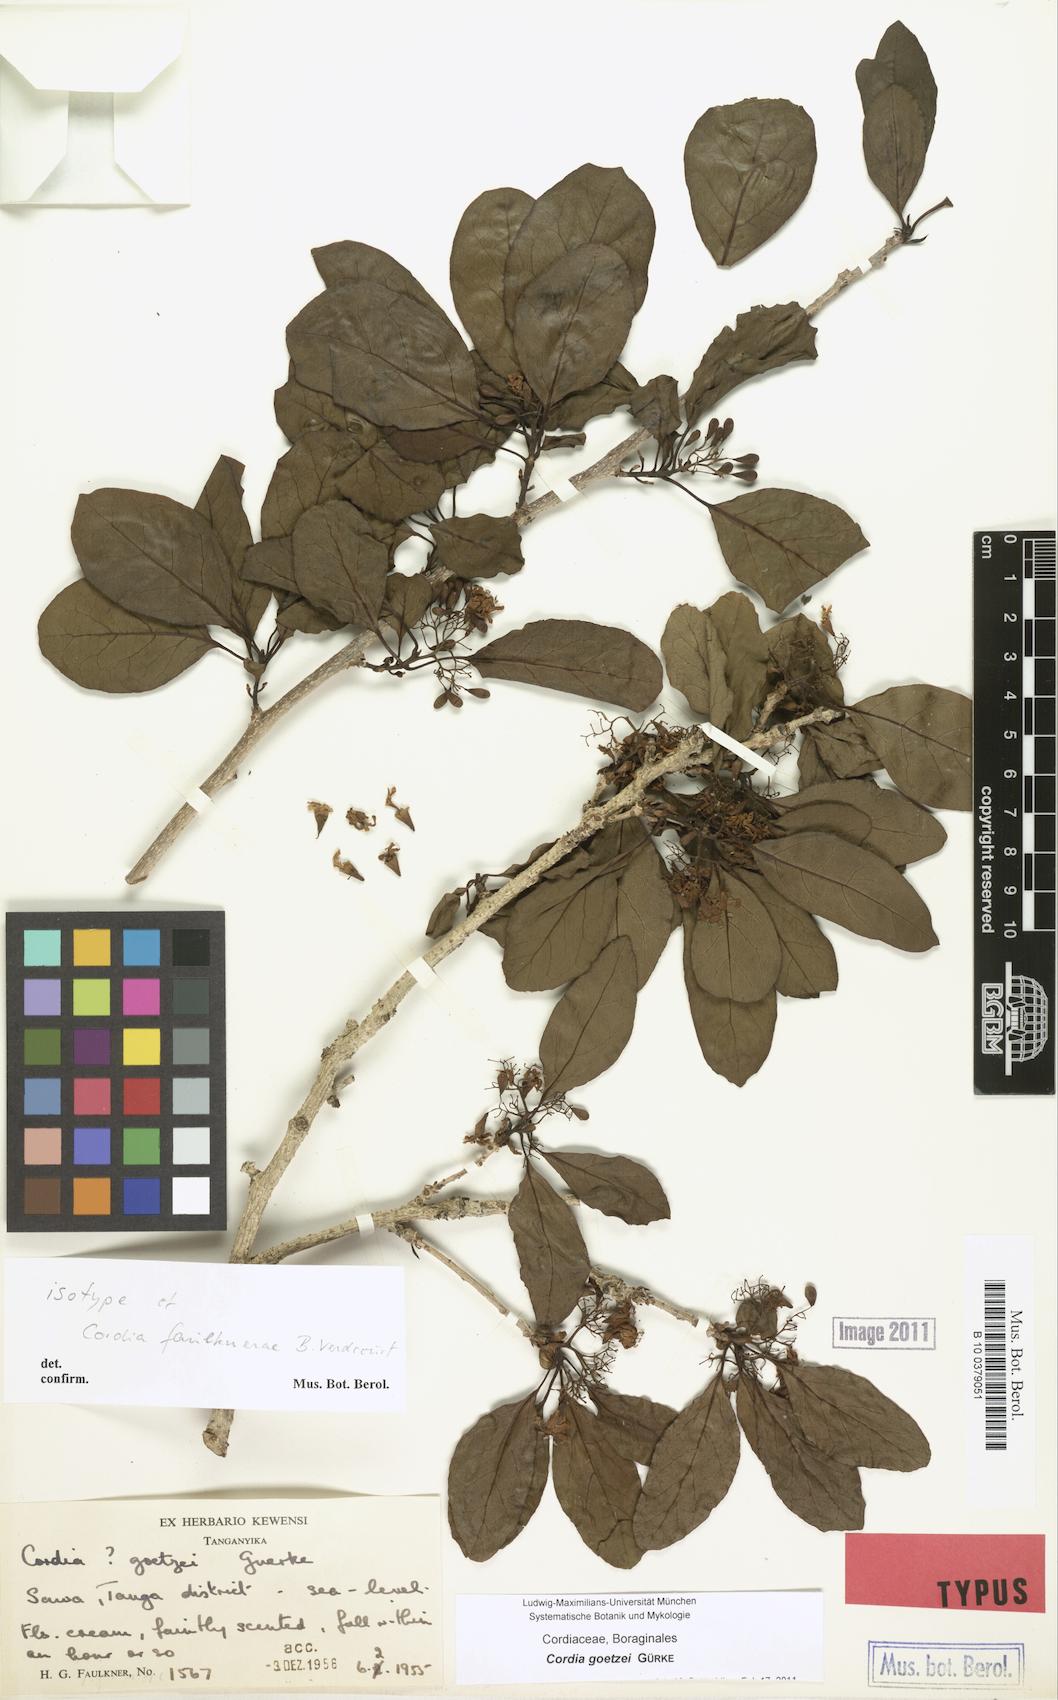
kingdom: Plantae
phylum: Tracheophyta
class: Magnoliopsida
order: Boraginales
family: Cordiaceae
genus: Cordia
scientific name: Cordia goetzei
